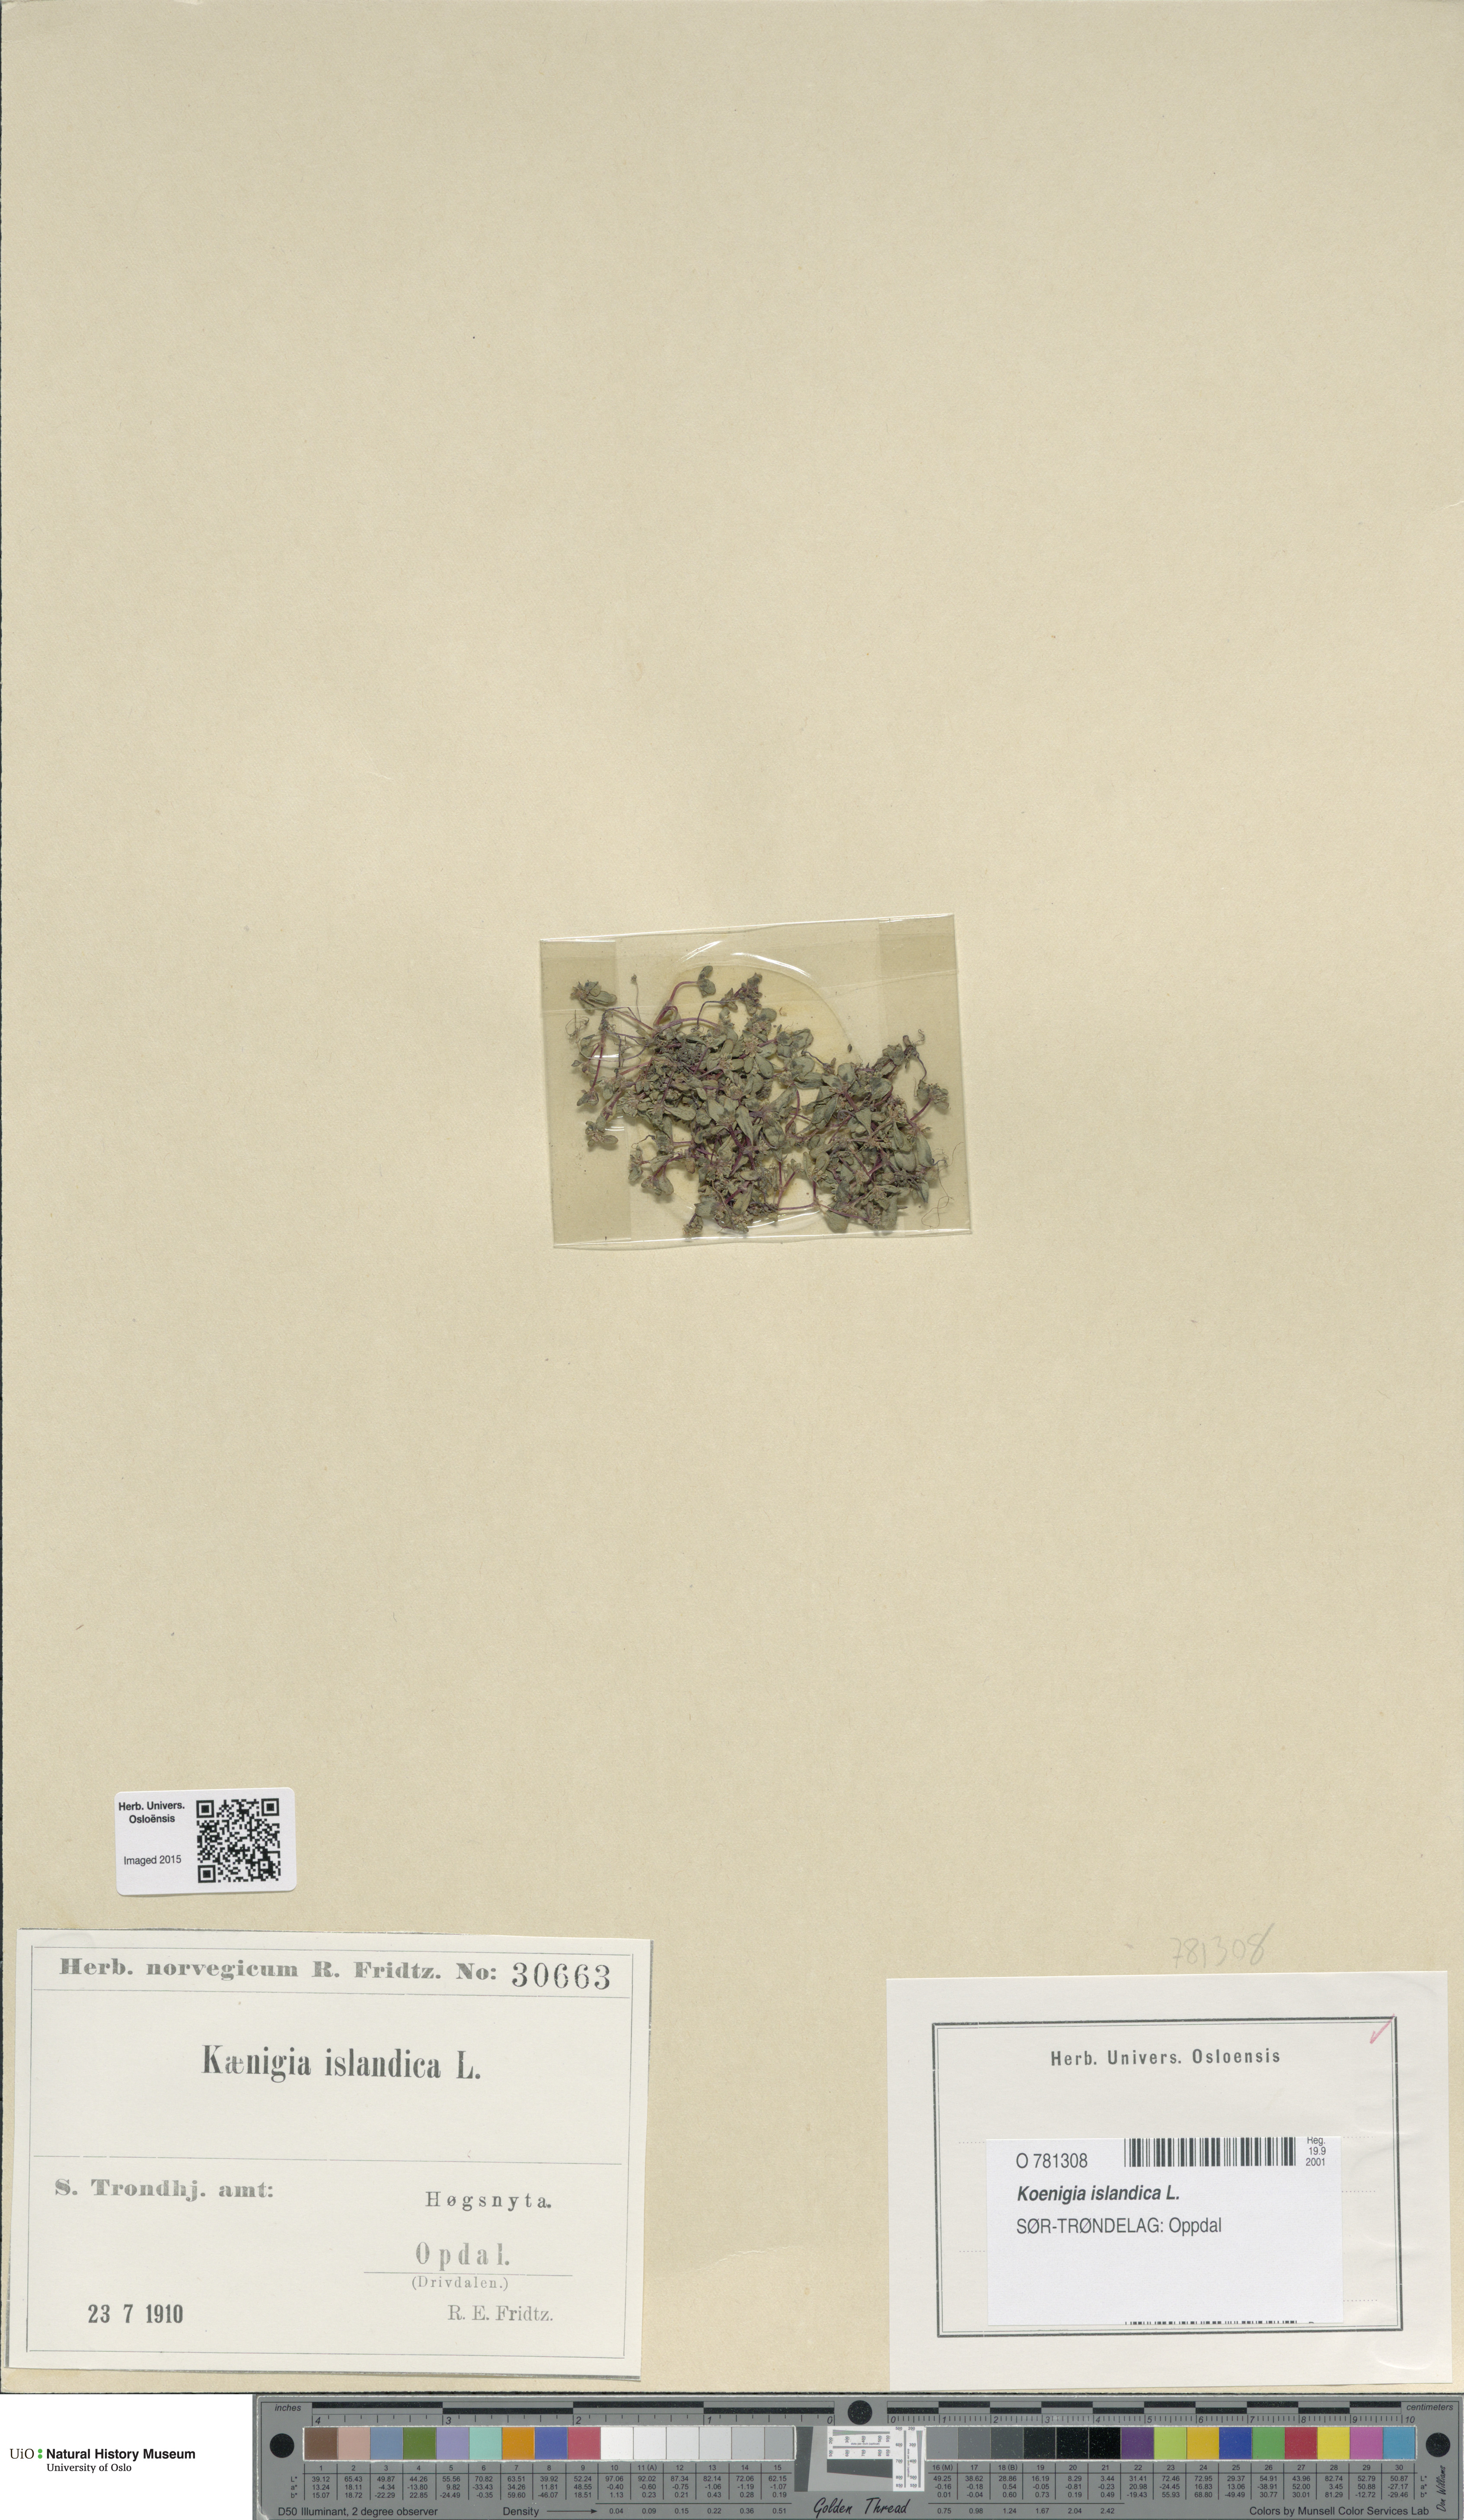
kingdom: Plantae
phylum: Tracheophyta
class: Magnoliopsida
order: Caryophyllales
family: Polygonaceae
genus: Koenigia
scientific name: Koenigia islandica
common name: Iceland-purslane
